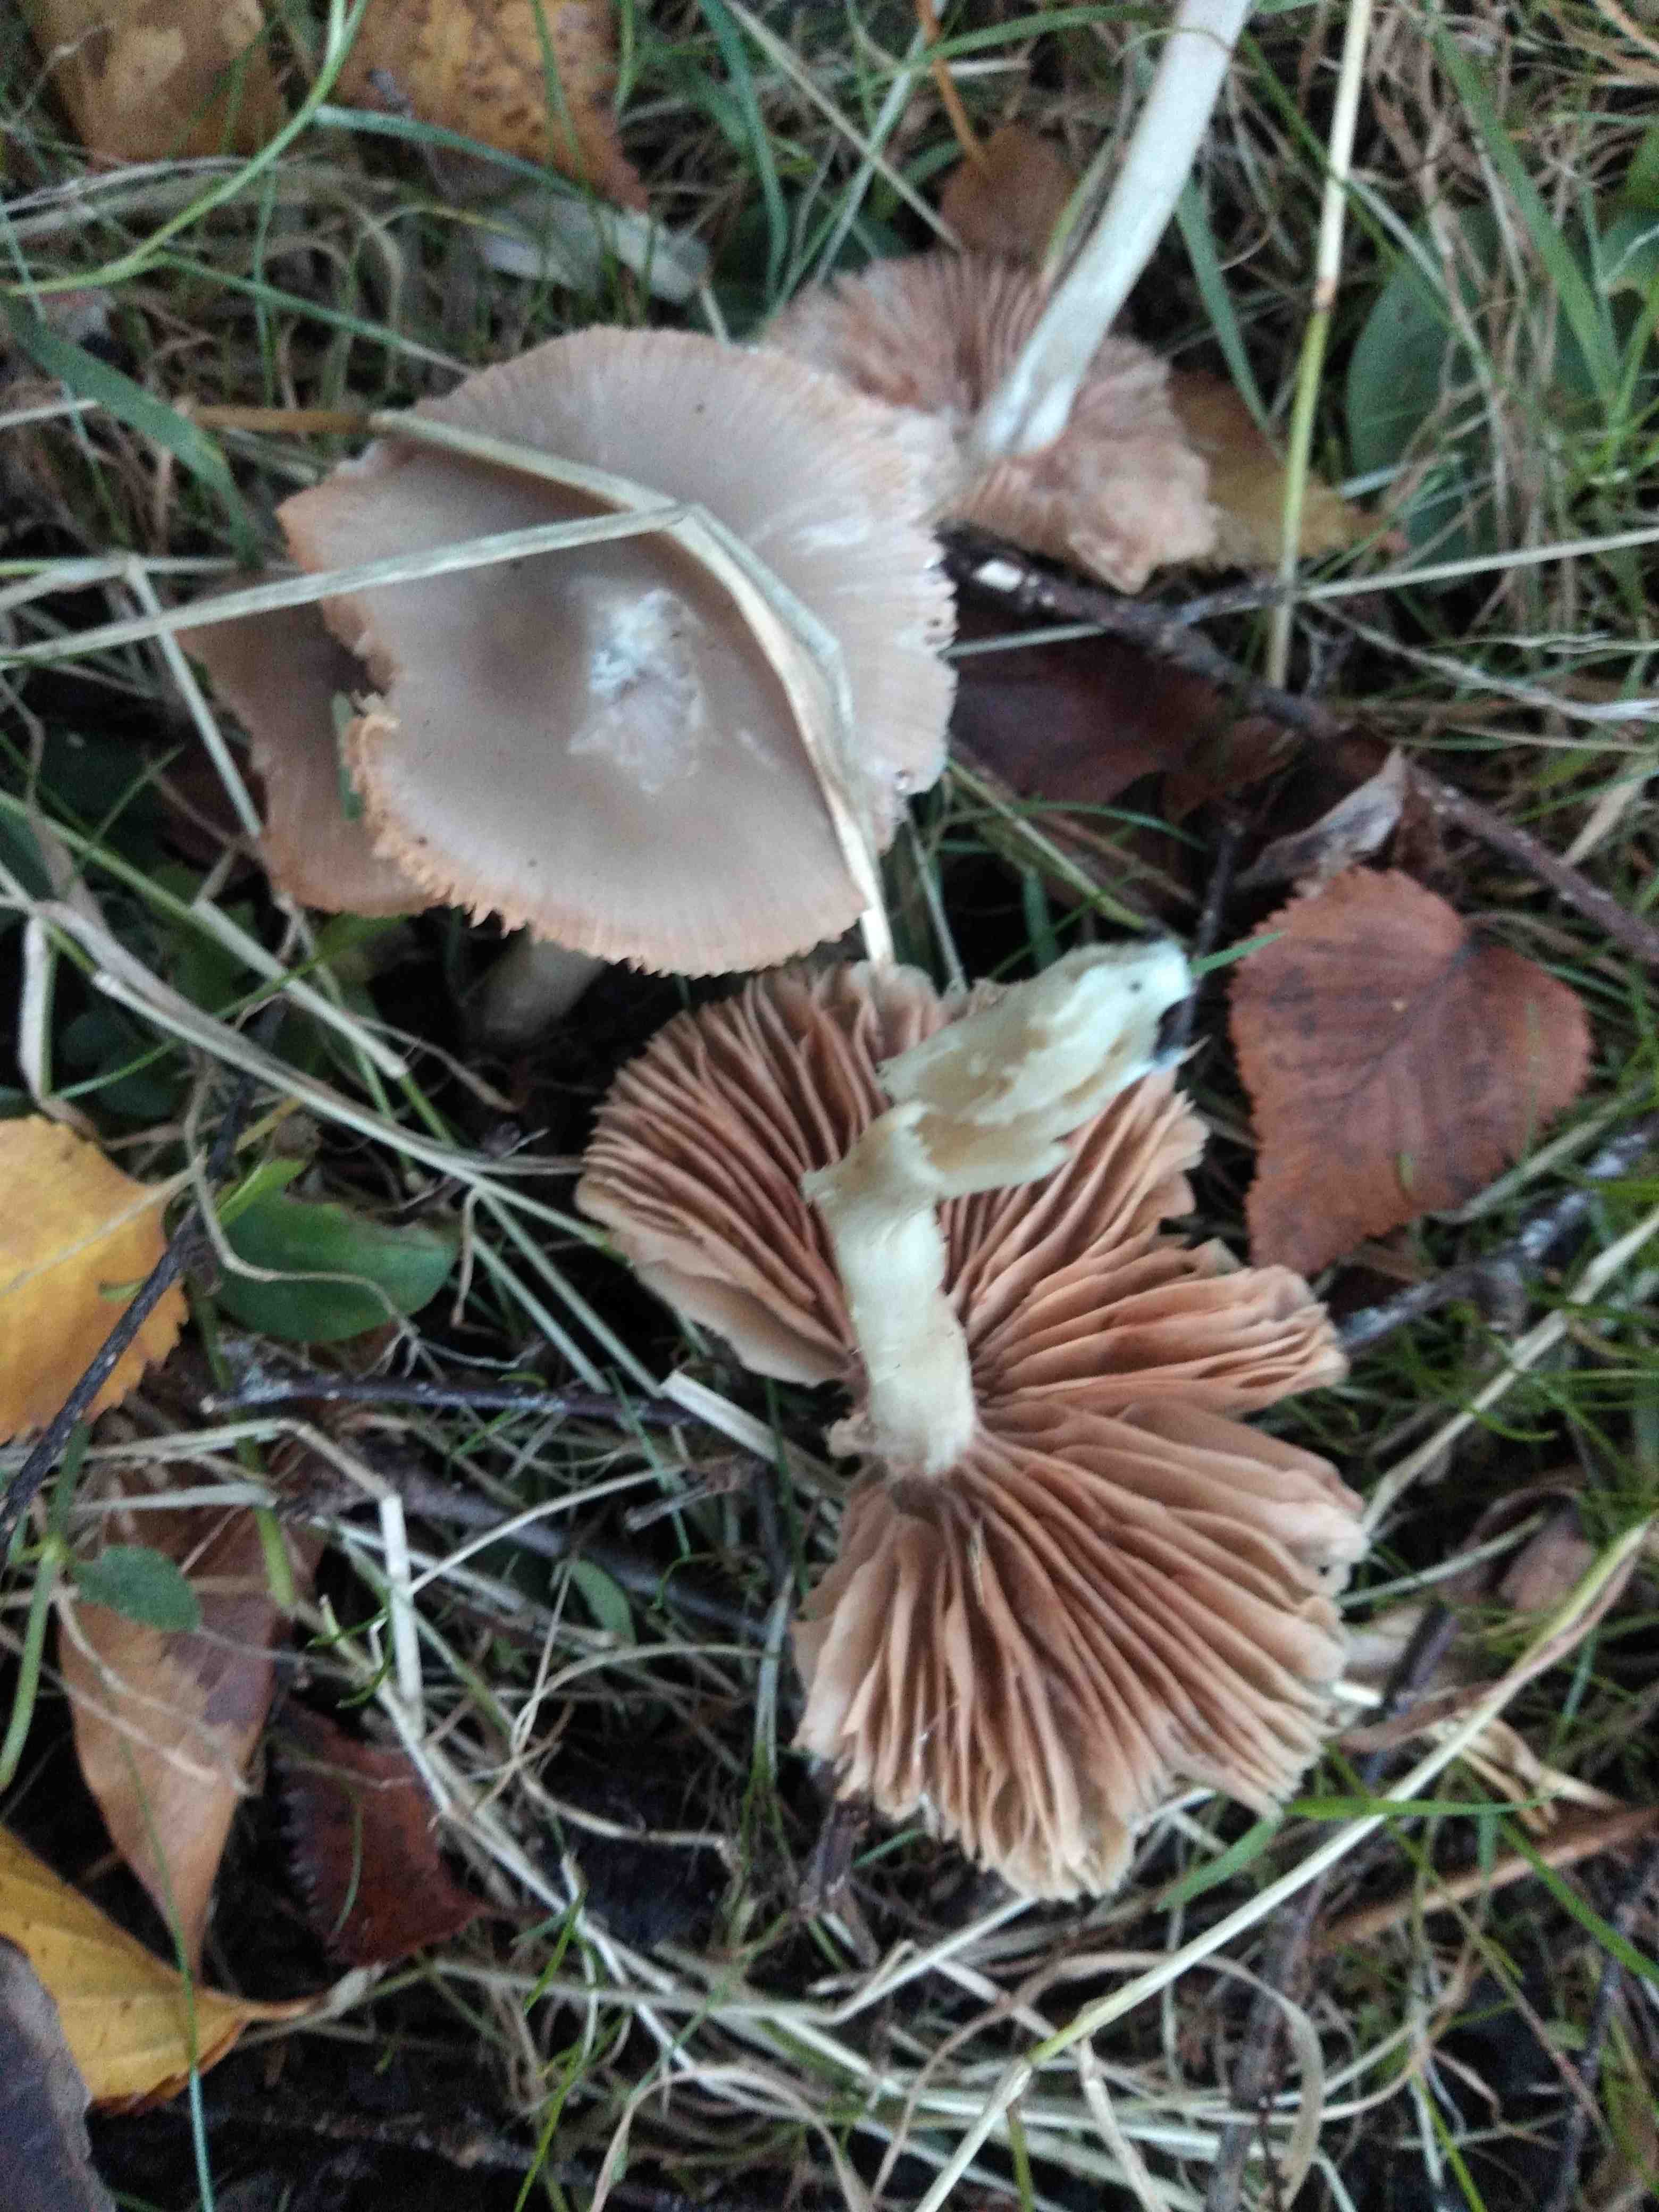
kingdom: Fungi
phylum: Basidiomycota
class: Agaricomycetes
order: Agaricales
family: Entolomataceae
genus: Entoloma
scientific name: Entoloma
